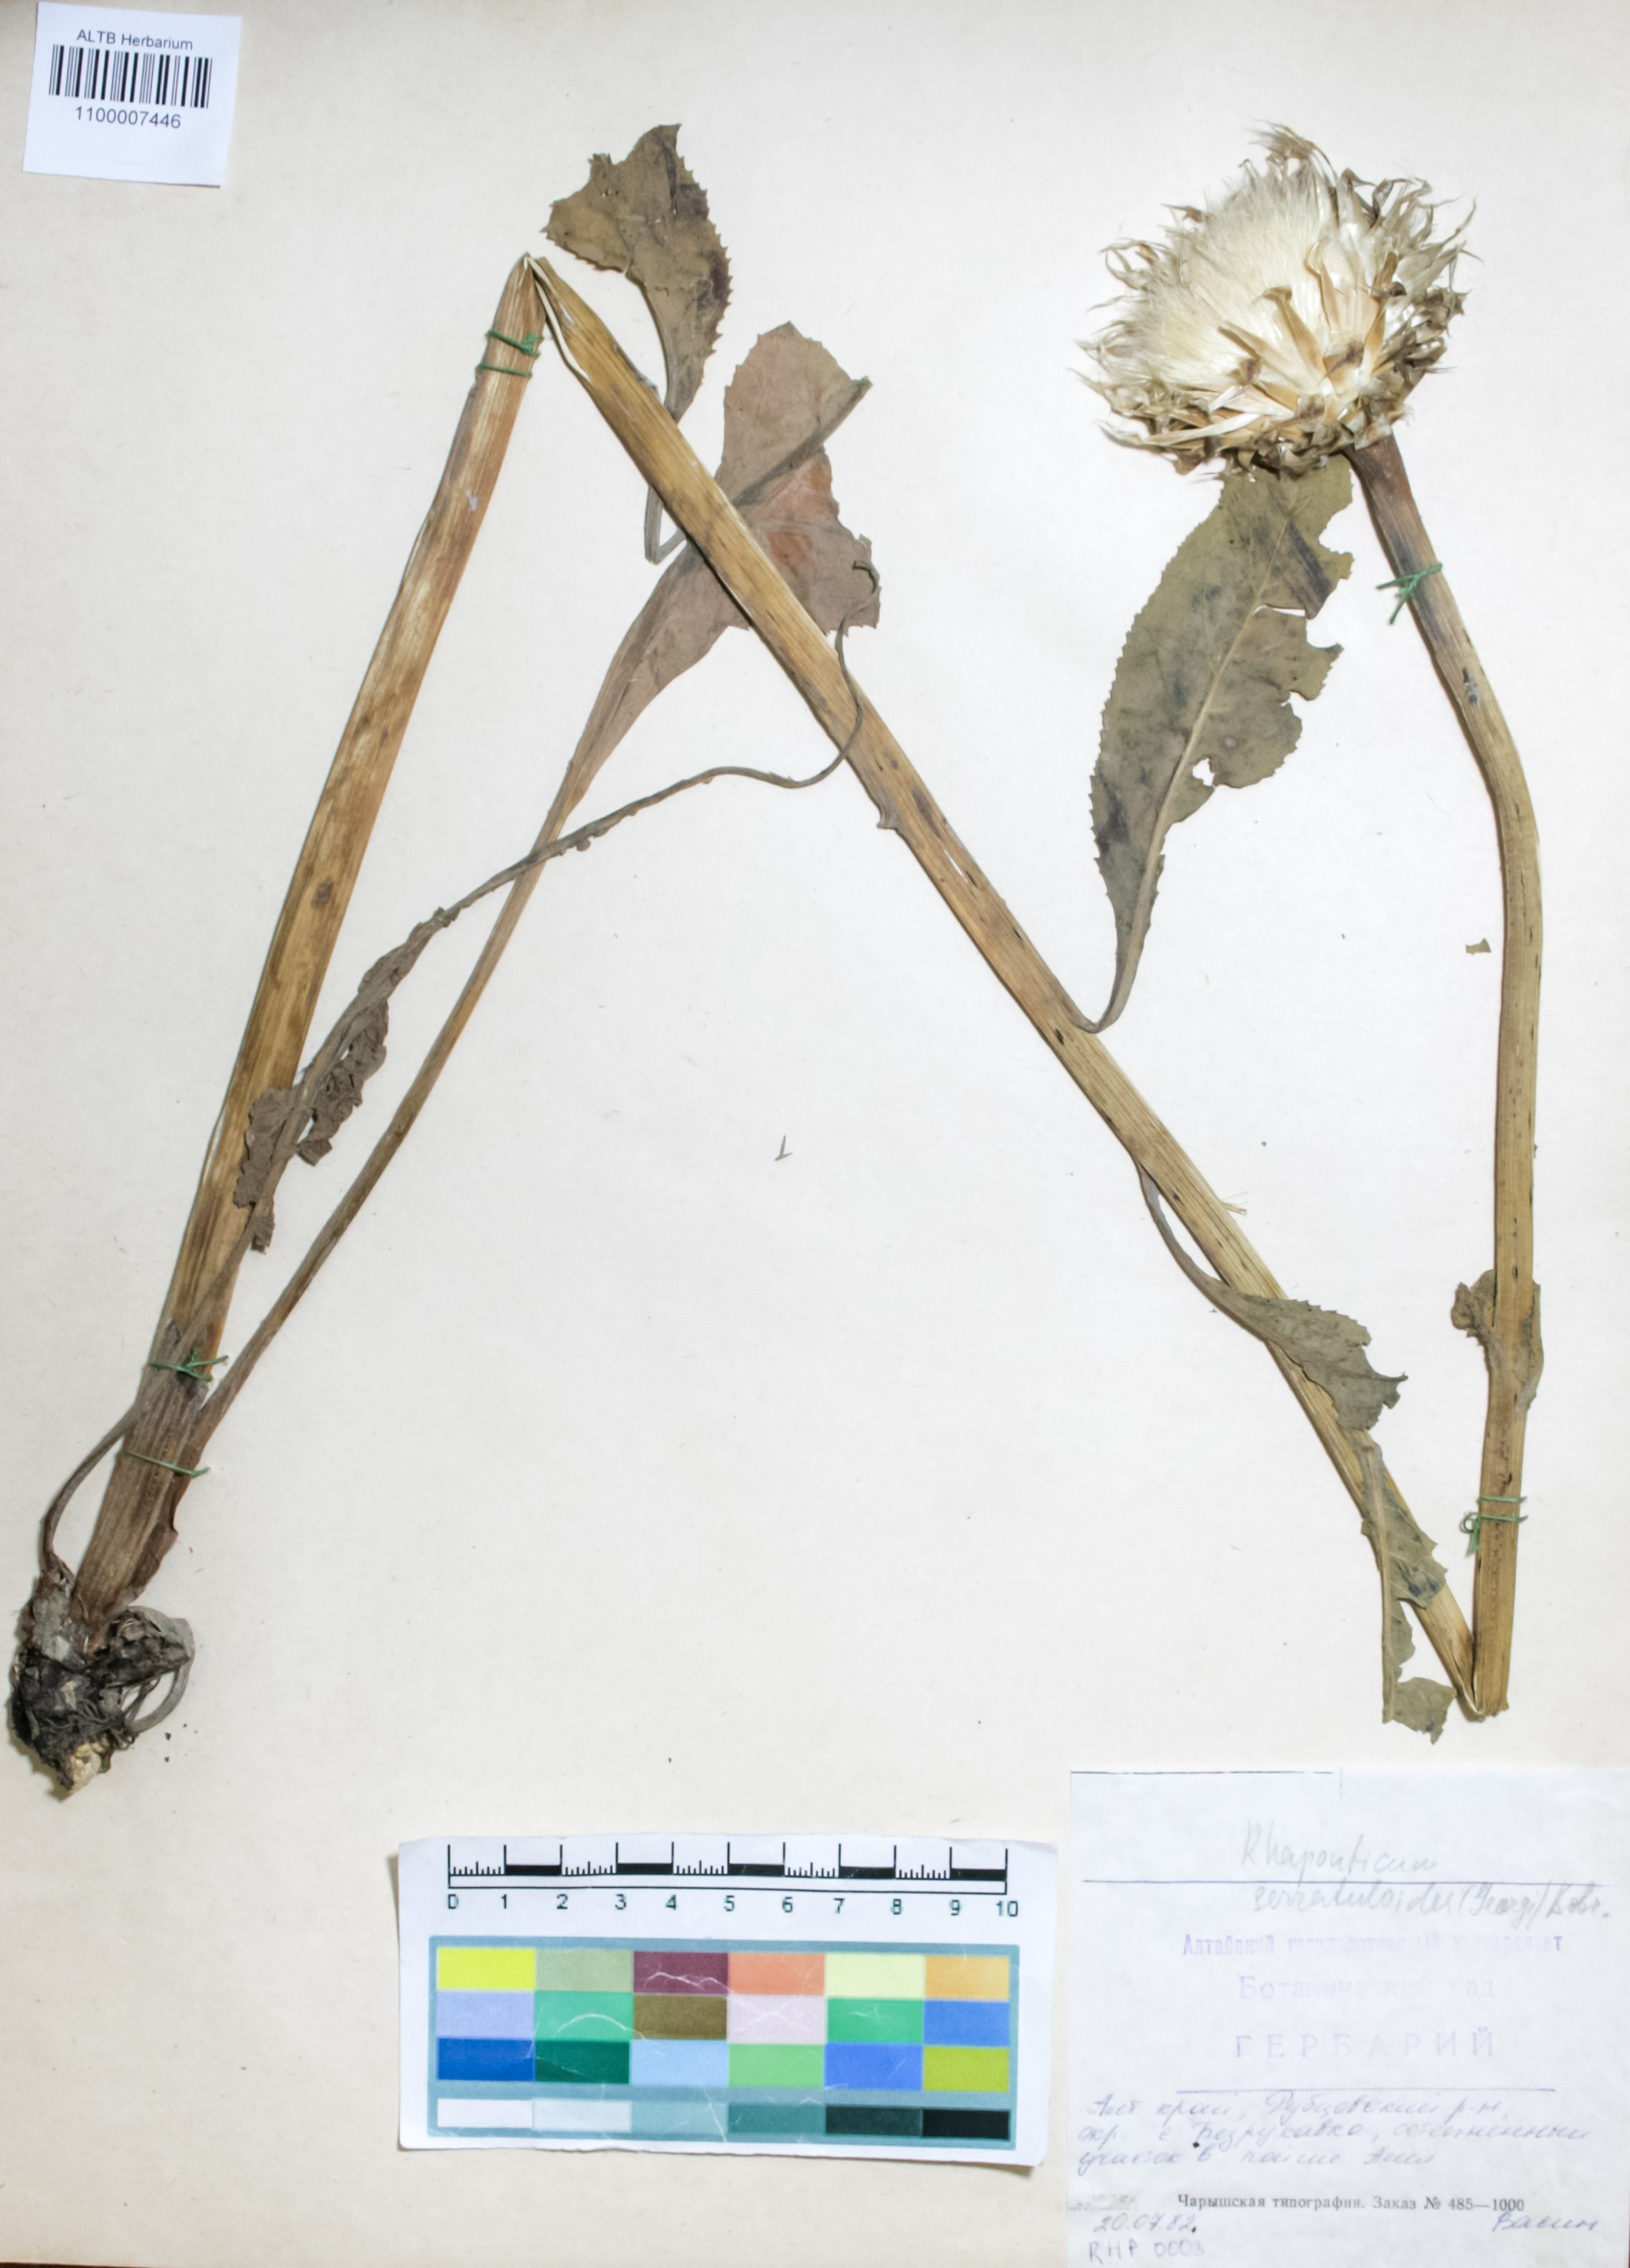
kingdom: Plantae
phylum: Tracheophyta
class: Magnoliopsida
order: Asterales
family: Asteraceae
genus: Leuzea
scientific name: Leuzea altaica
